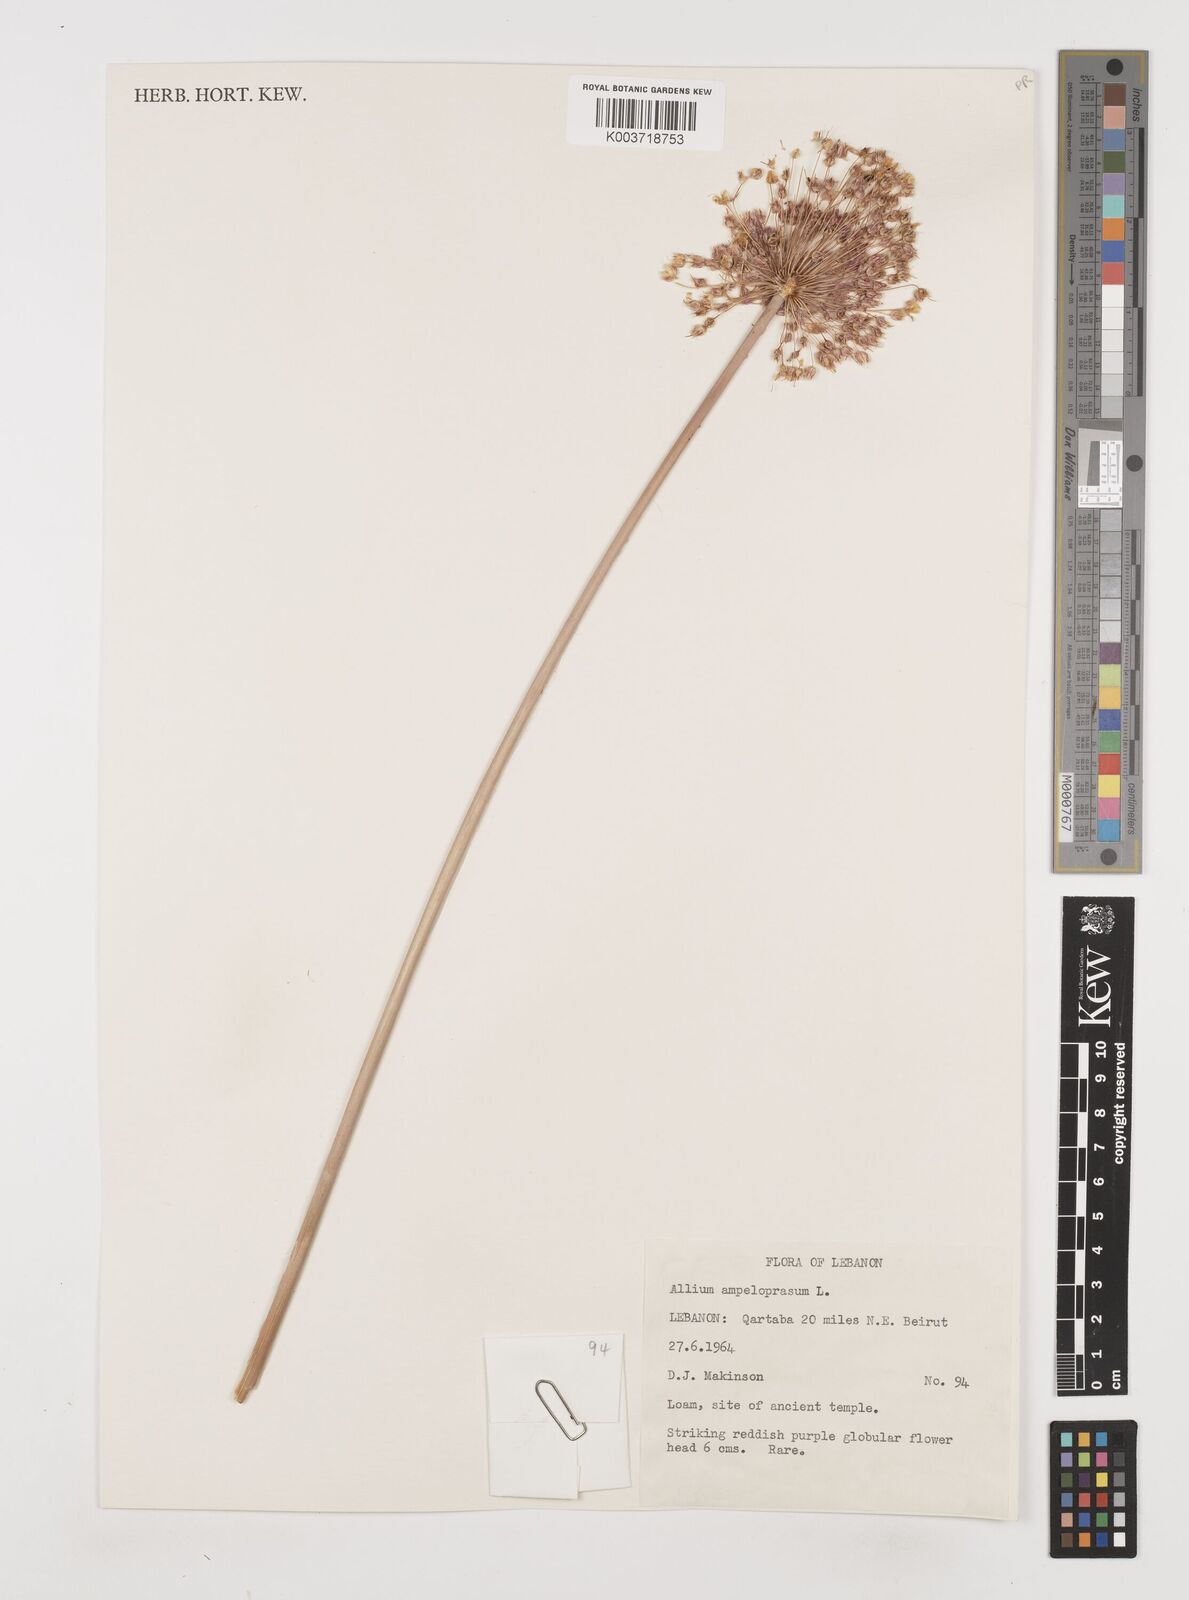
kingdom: Plantae
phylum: Tracheophyta
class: Liliopsida
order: Asparagales
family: Amaryllidaceae
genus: Allium
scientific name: Allium rotundum
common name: Sand leek
